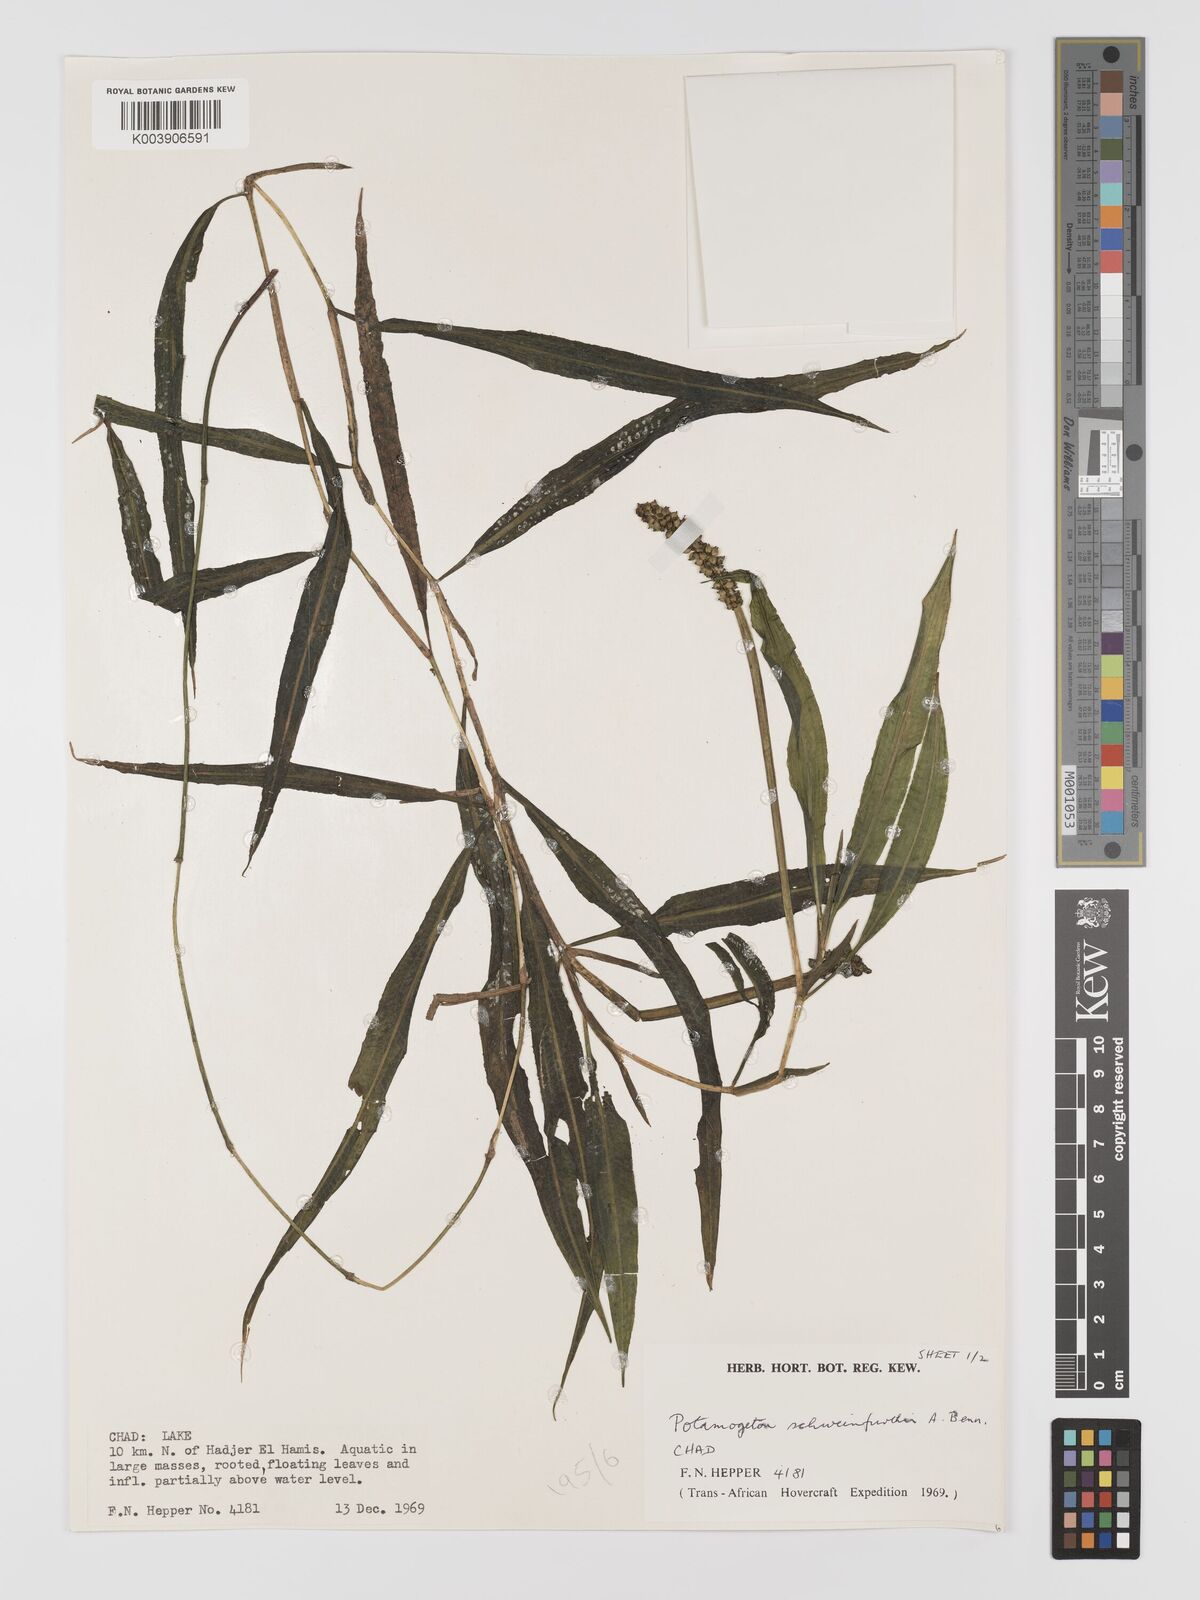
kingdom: Plantae
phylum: Tracheophyta
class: Liliopsida
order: Alismatales
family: Potamogetonaceae
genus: Potamogeton
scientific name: Potamogeton schweinfurthii
